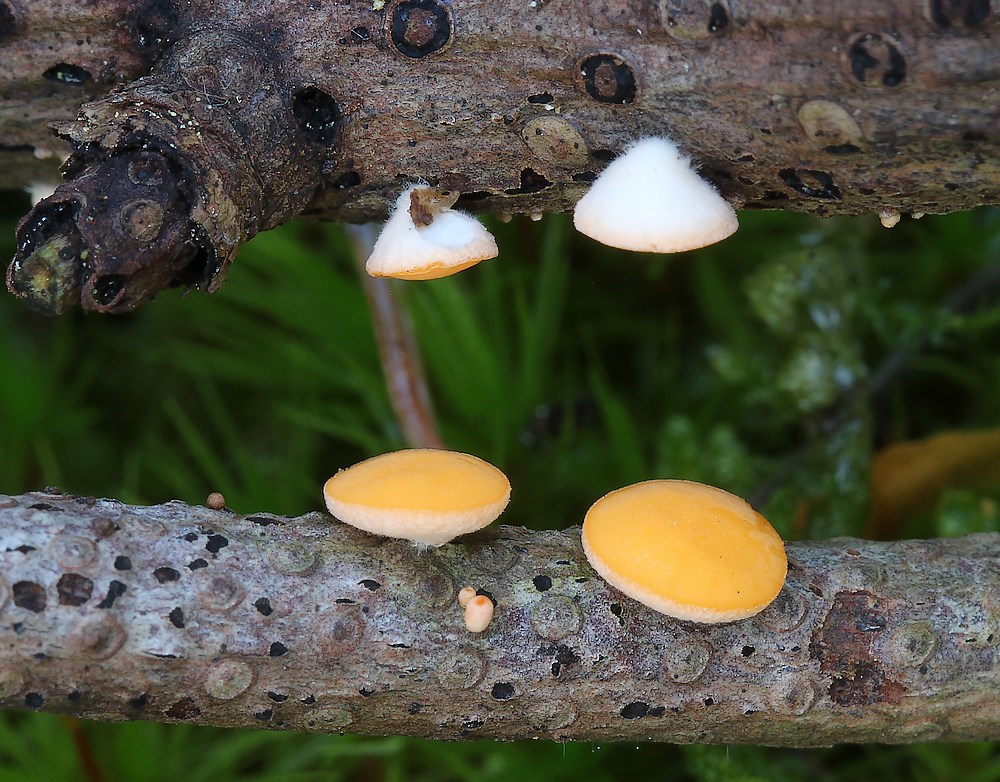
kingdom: Fungi
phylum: Ascomycota
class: Pezizomycetes
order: Pezizales
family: Sarcoscyphaceae
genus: Pithya
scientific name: Pithya vulgaris
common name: stor dukatbæger
